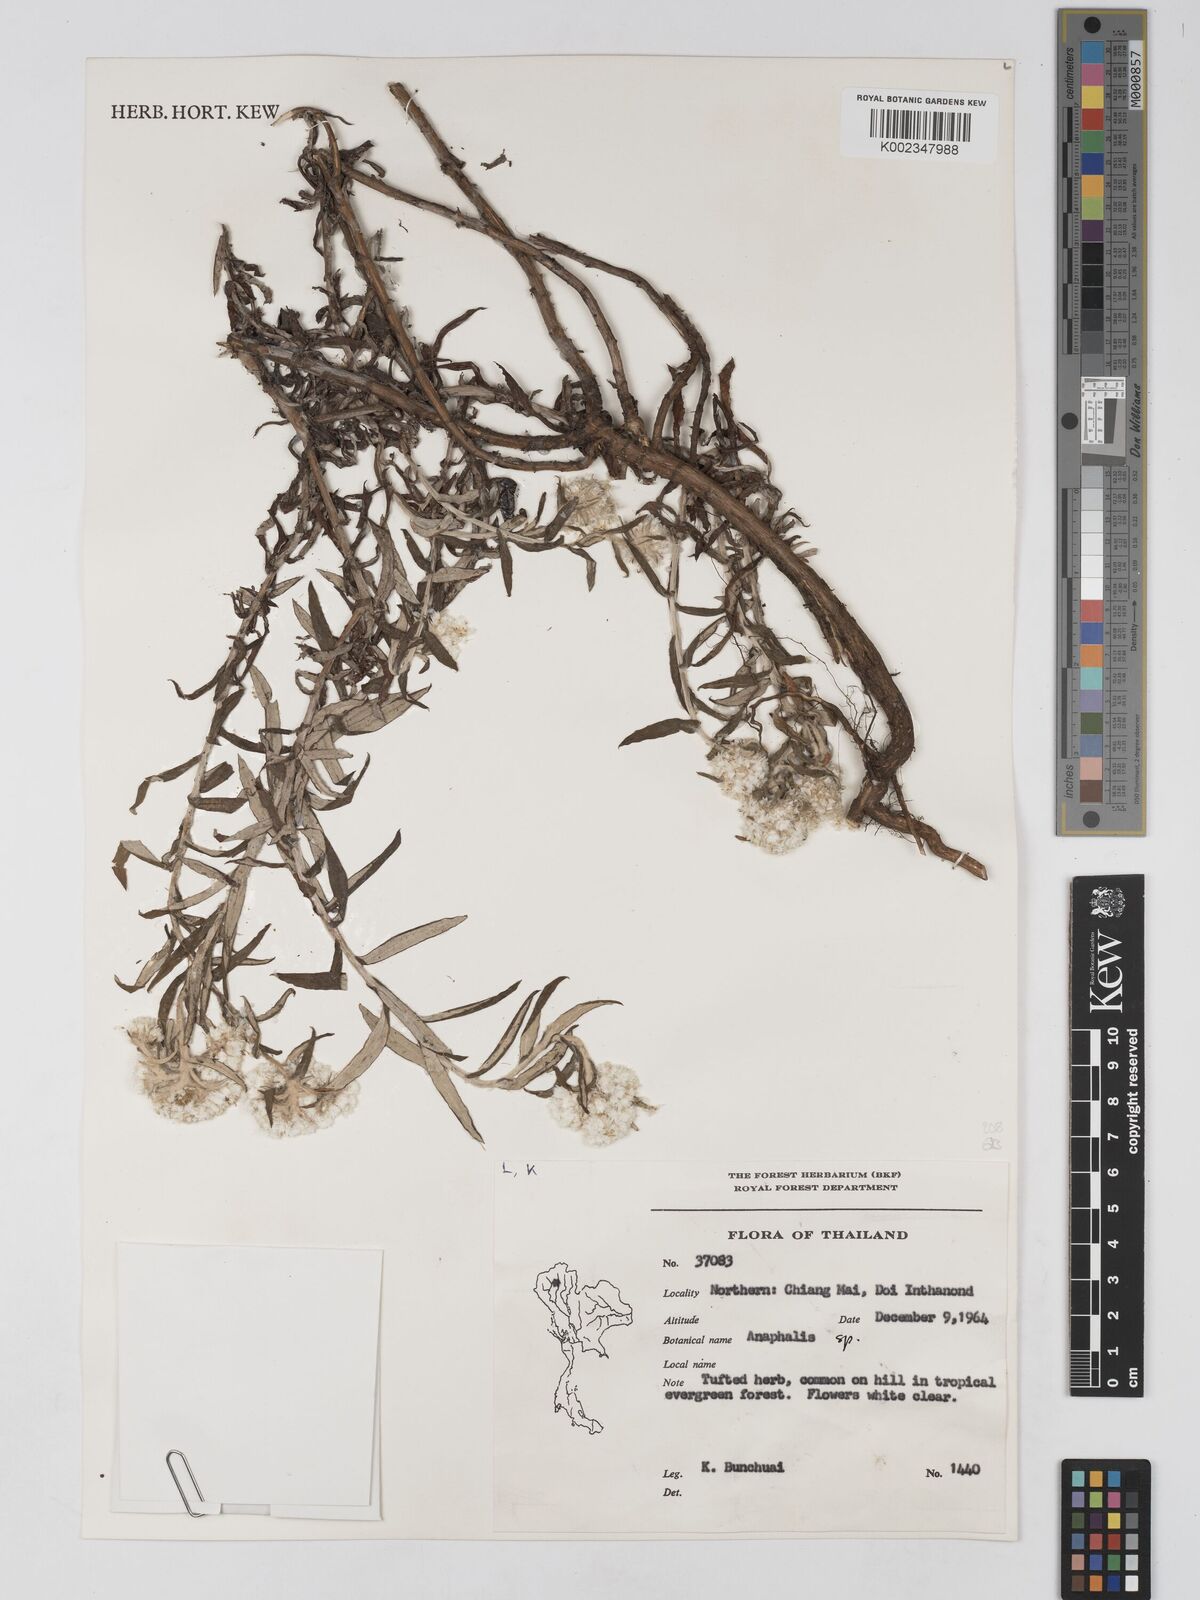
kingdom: Plantae
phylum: Tracheophyta
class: Magnoliopsida
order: Asterales
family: Asteraceae
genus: Anaphalis
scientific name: Anaphalis
